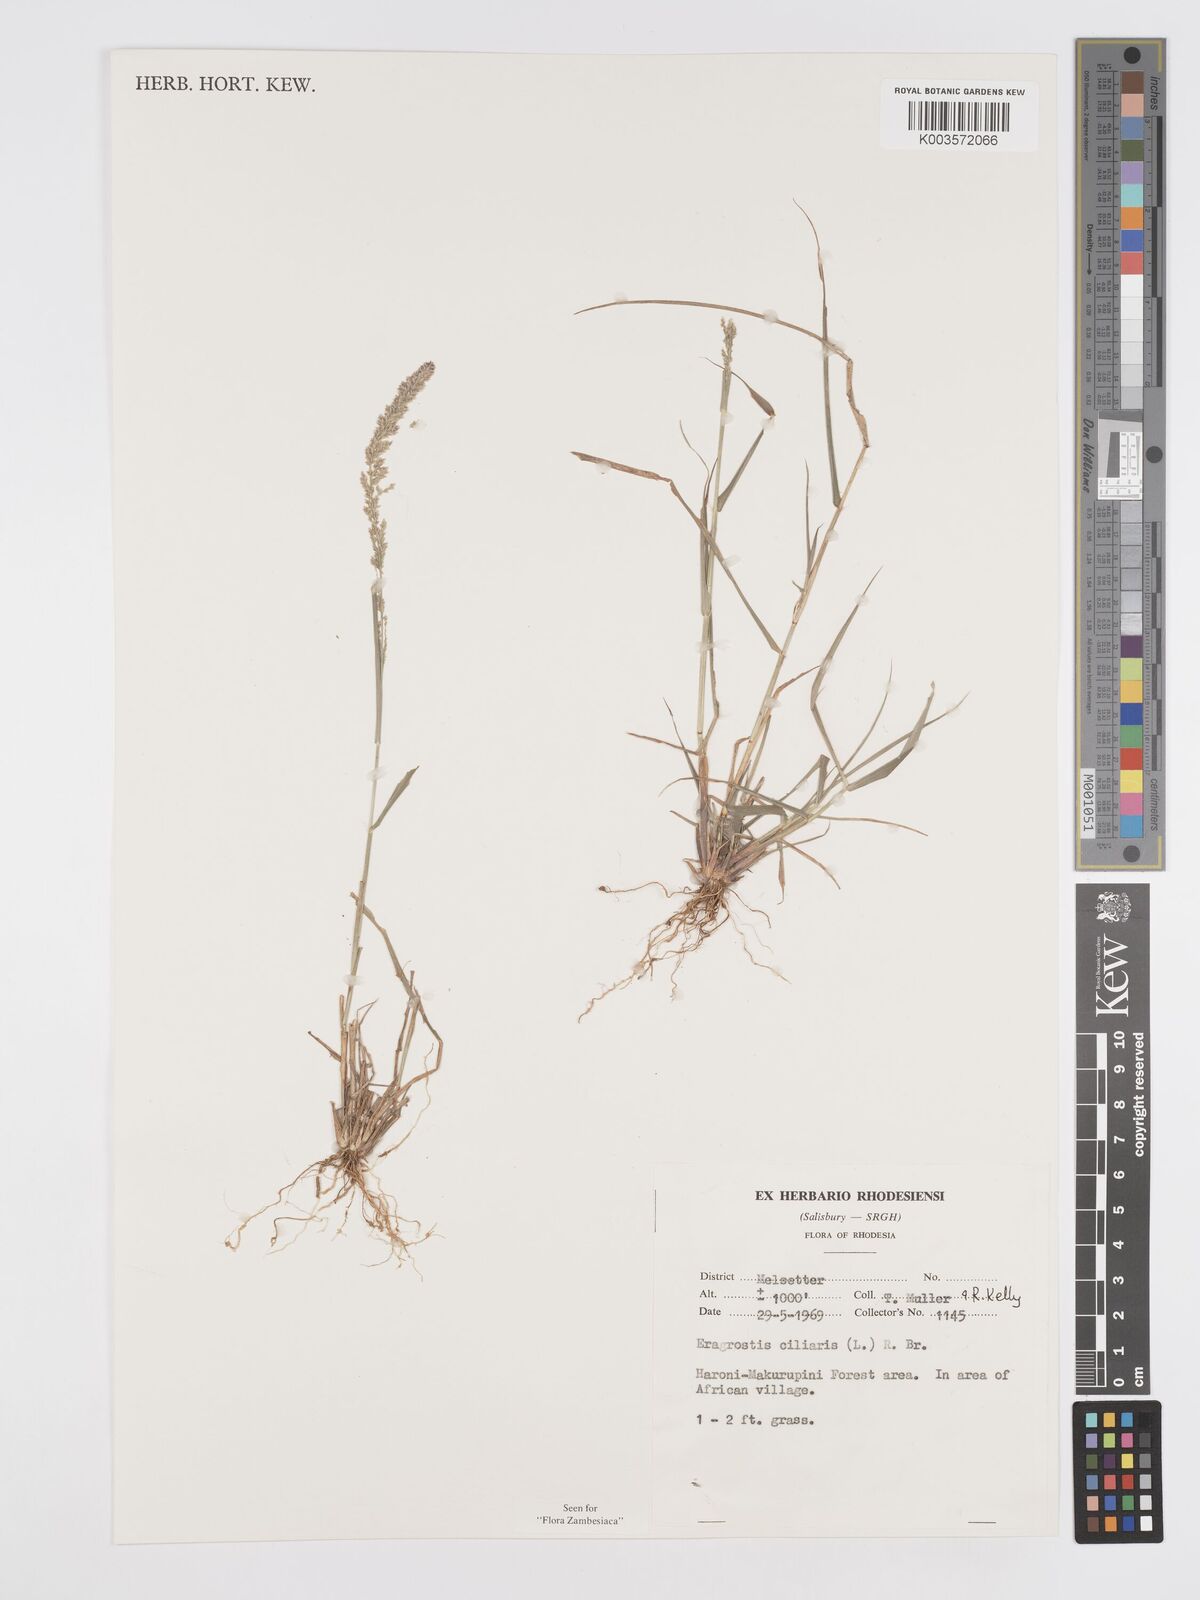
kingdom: Plantae
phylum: Tracheophyta
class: Liliopsida
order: Poales
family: Poaceae
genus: Eragrostis
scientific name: Eragrostis ciliaris
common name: Gophertail lovegrass
